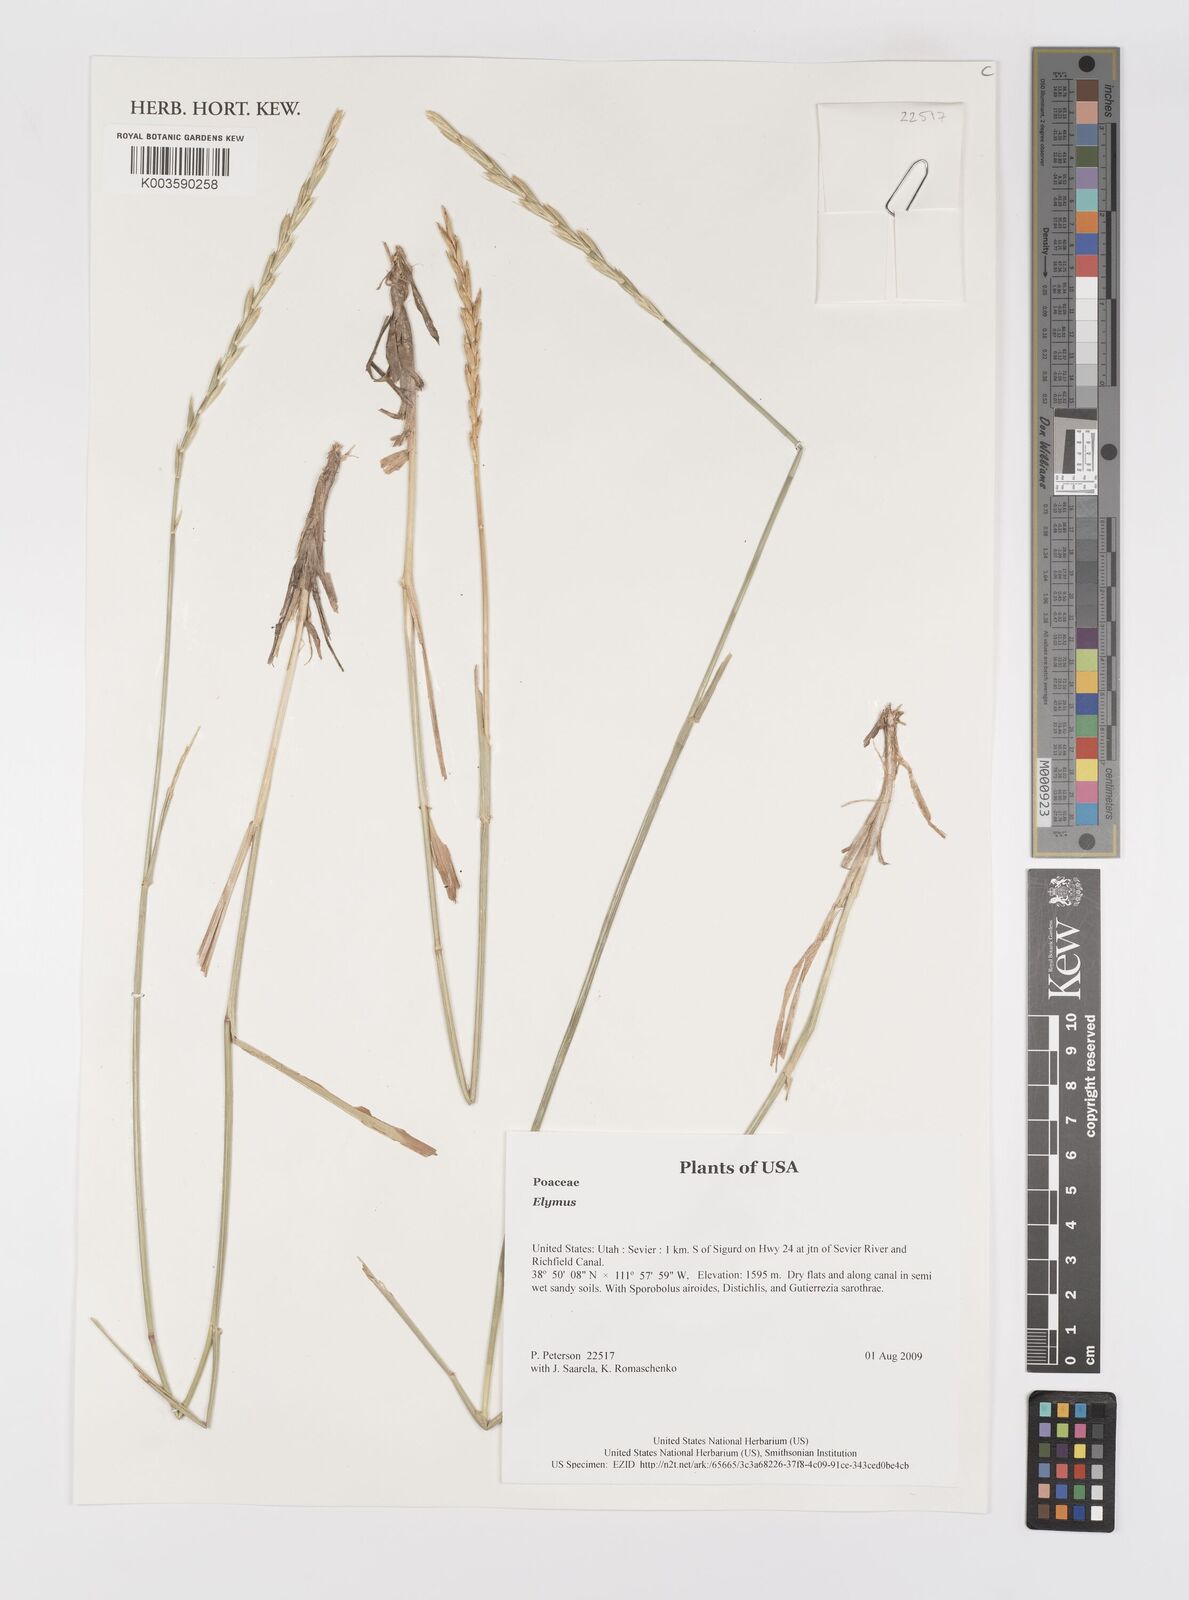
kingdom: Plantae
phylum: Tracheophyta
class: Liliopsida
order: Poales
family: Poaceae
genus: Elymus
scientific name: Elymus
